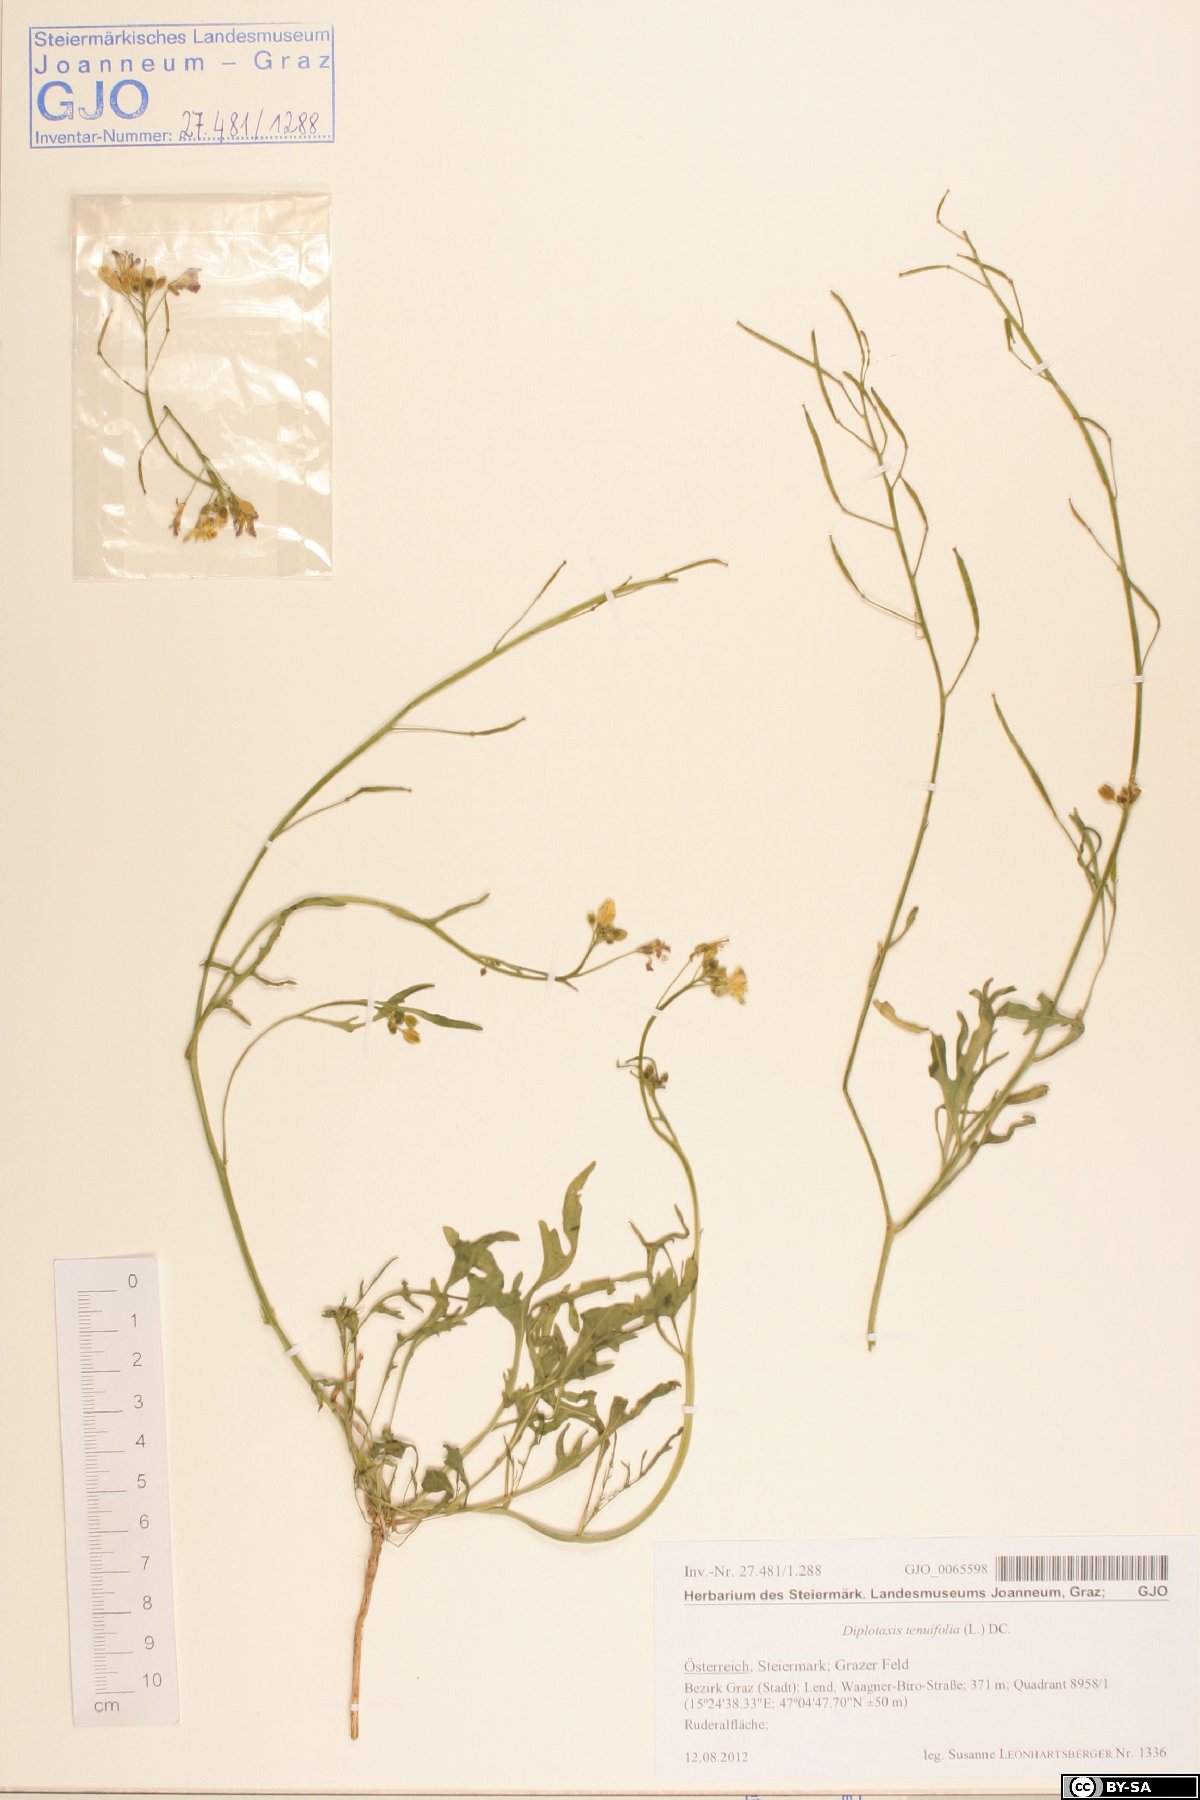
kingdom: Plantae
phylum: Tracheophyta
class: Magnoliopsida
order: Brassicales
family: Brassicaceae
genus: Diplotaxis
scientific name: Diplotaxis tenuifolia
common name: Perennial wall-rocket
